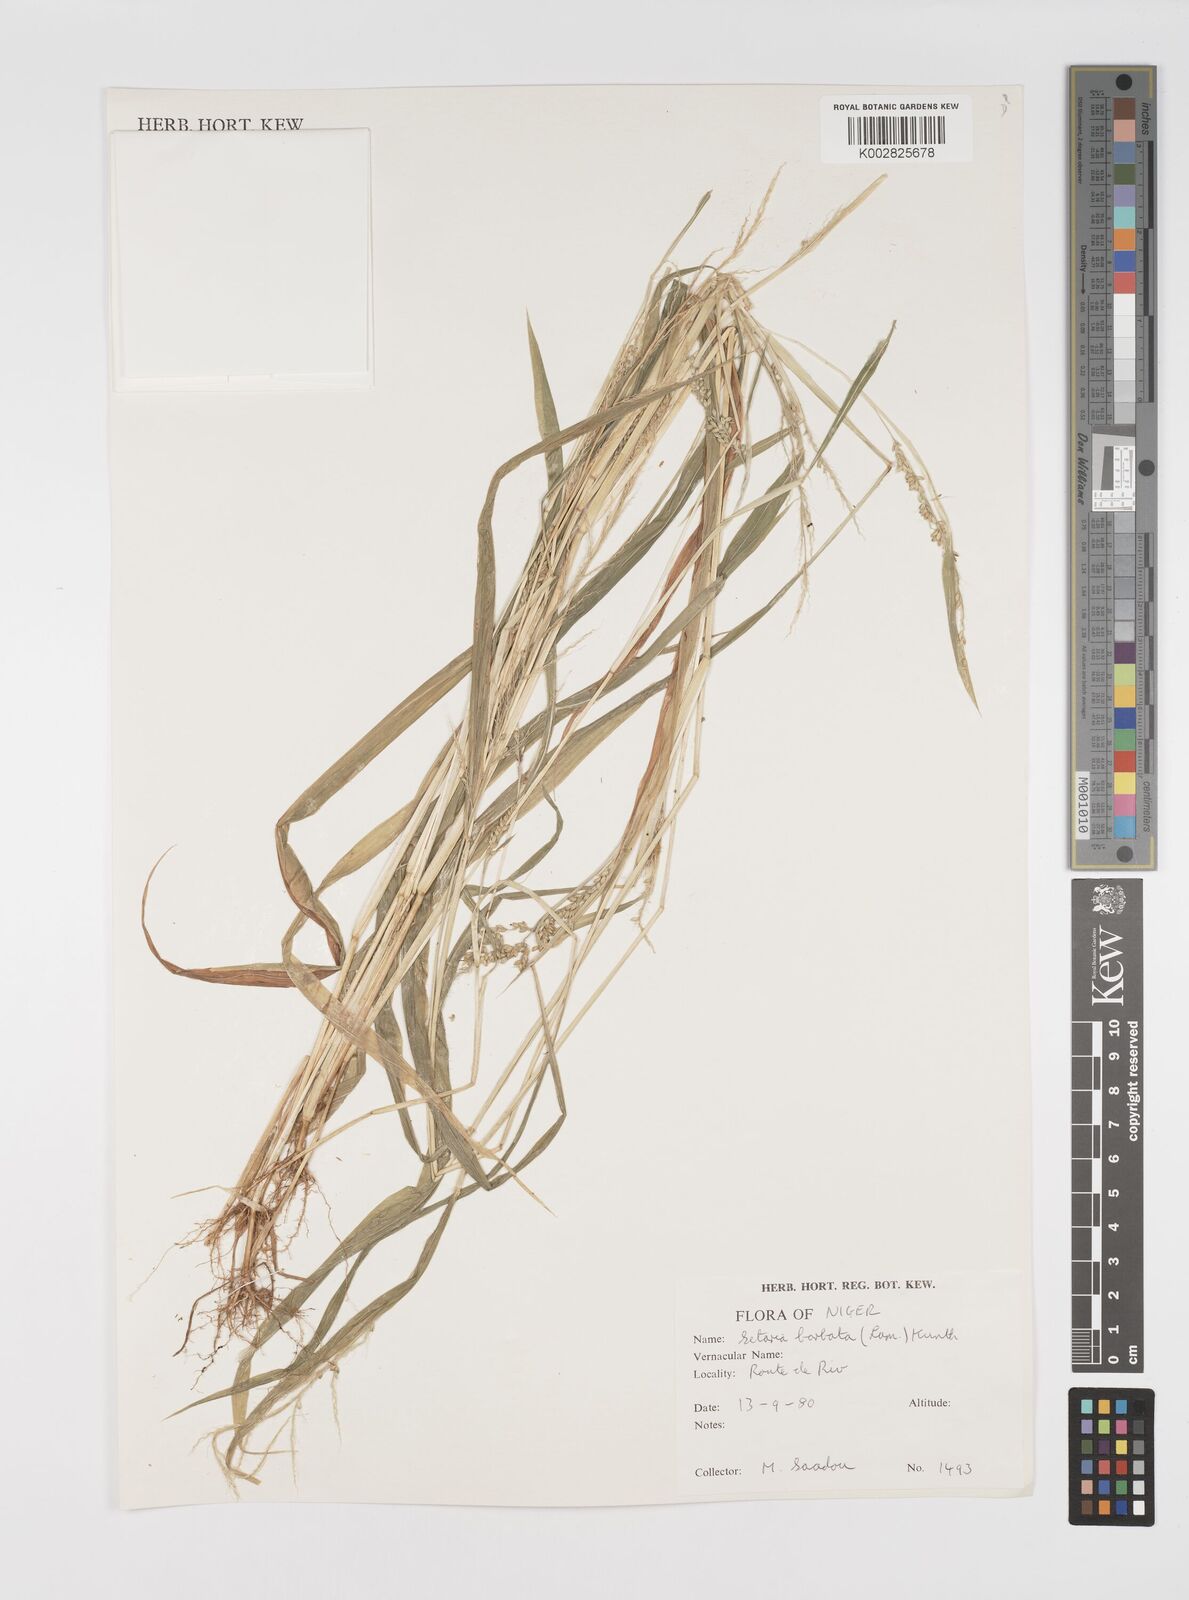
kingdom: Plantae
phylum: Tracheophyta
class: Liliopsida
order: Poales
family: Poaceae
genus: Setaria
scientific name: Setaria barbata
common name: East indian bristlegrass
